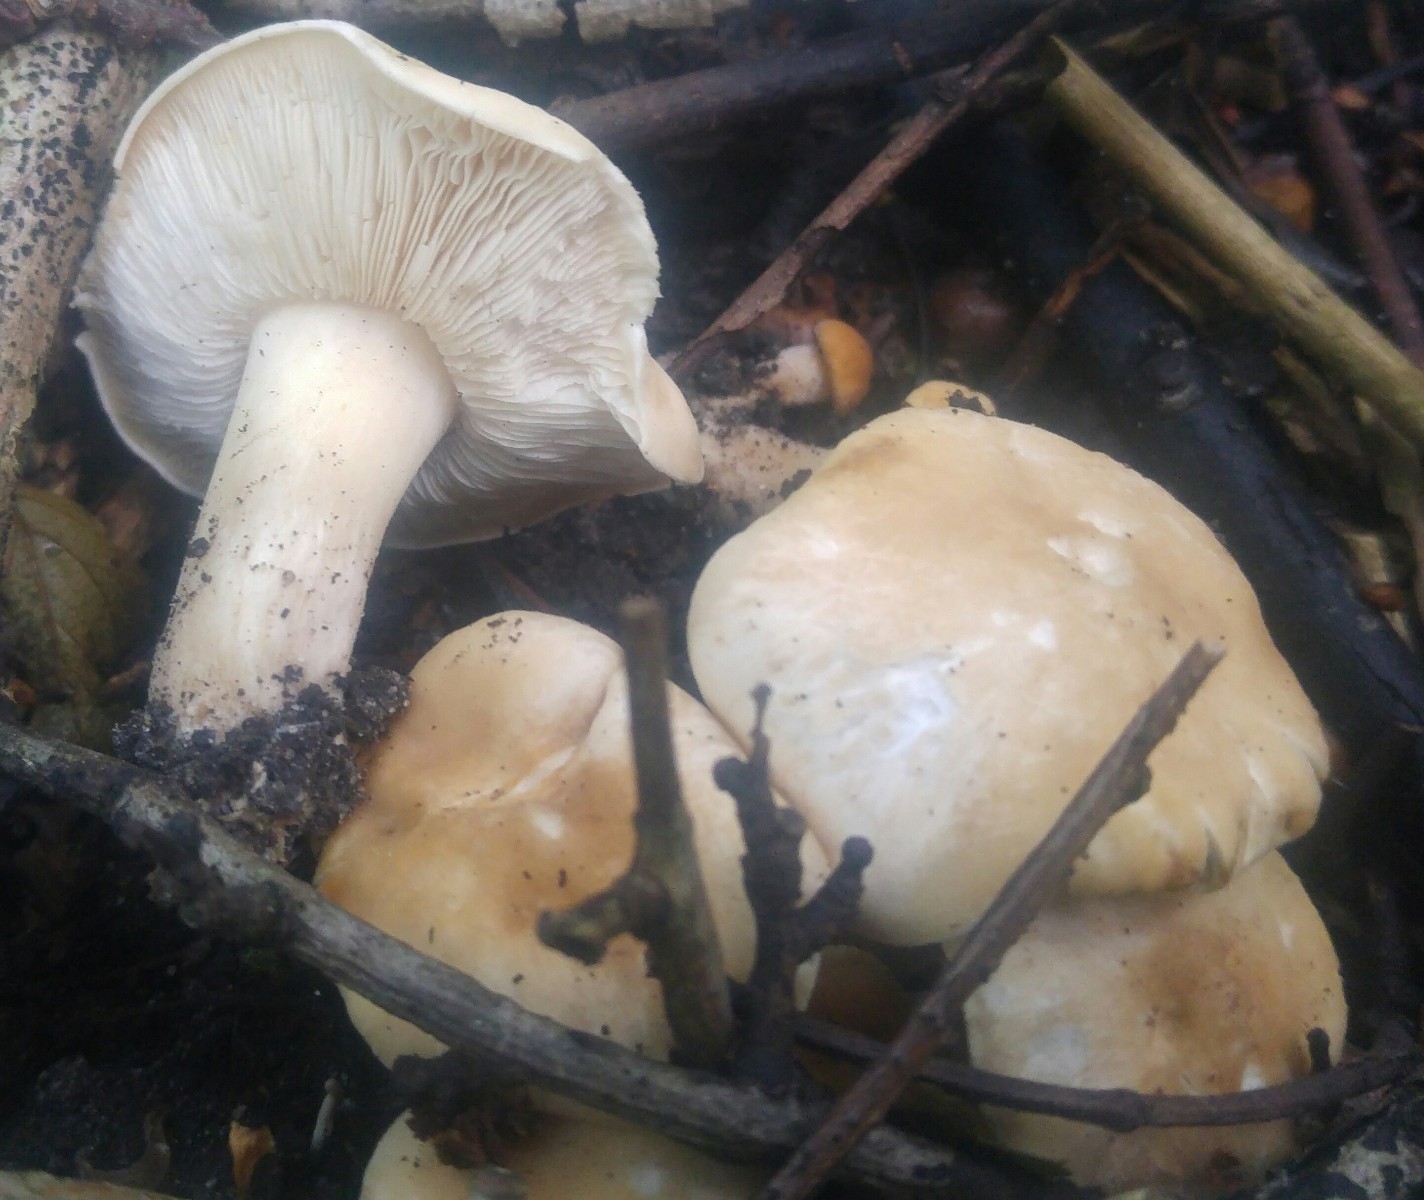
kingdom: Fungi
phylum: Basidiomycota
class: Agaricomycetes
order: Agaricales
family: Lyophyllaceae
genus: Calocybe
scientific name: Calocybe gambosa
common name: vårmusseron
